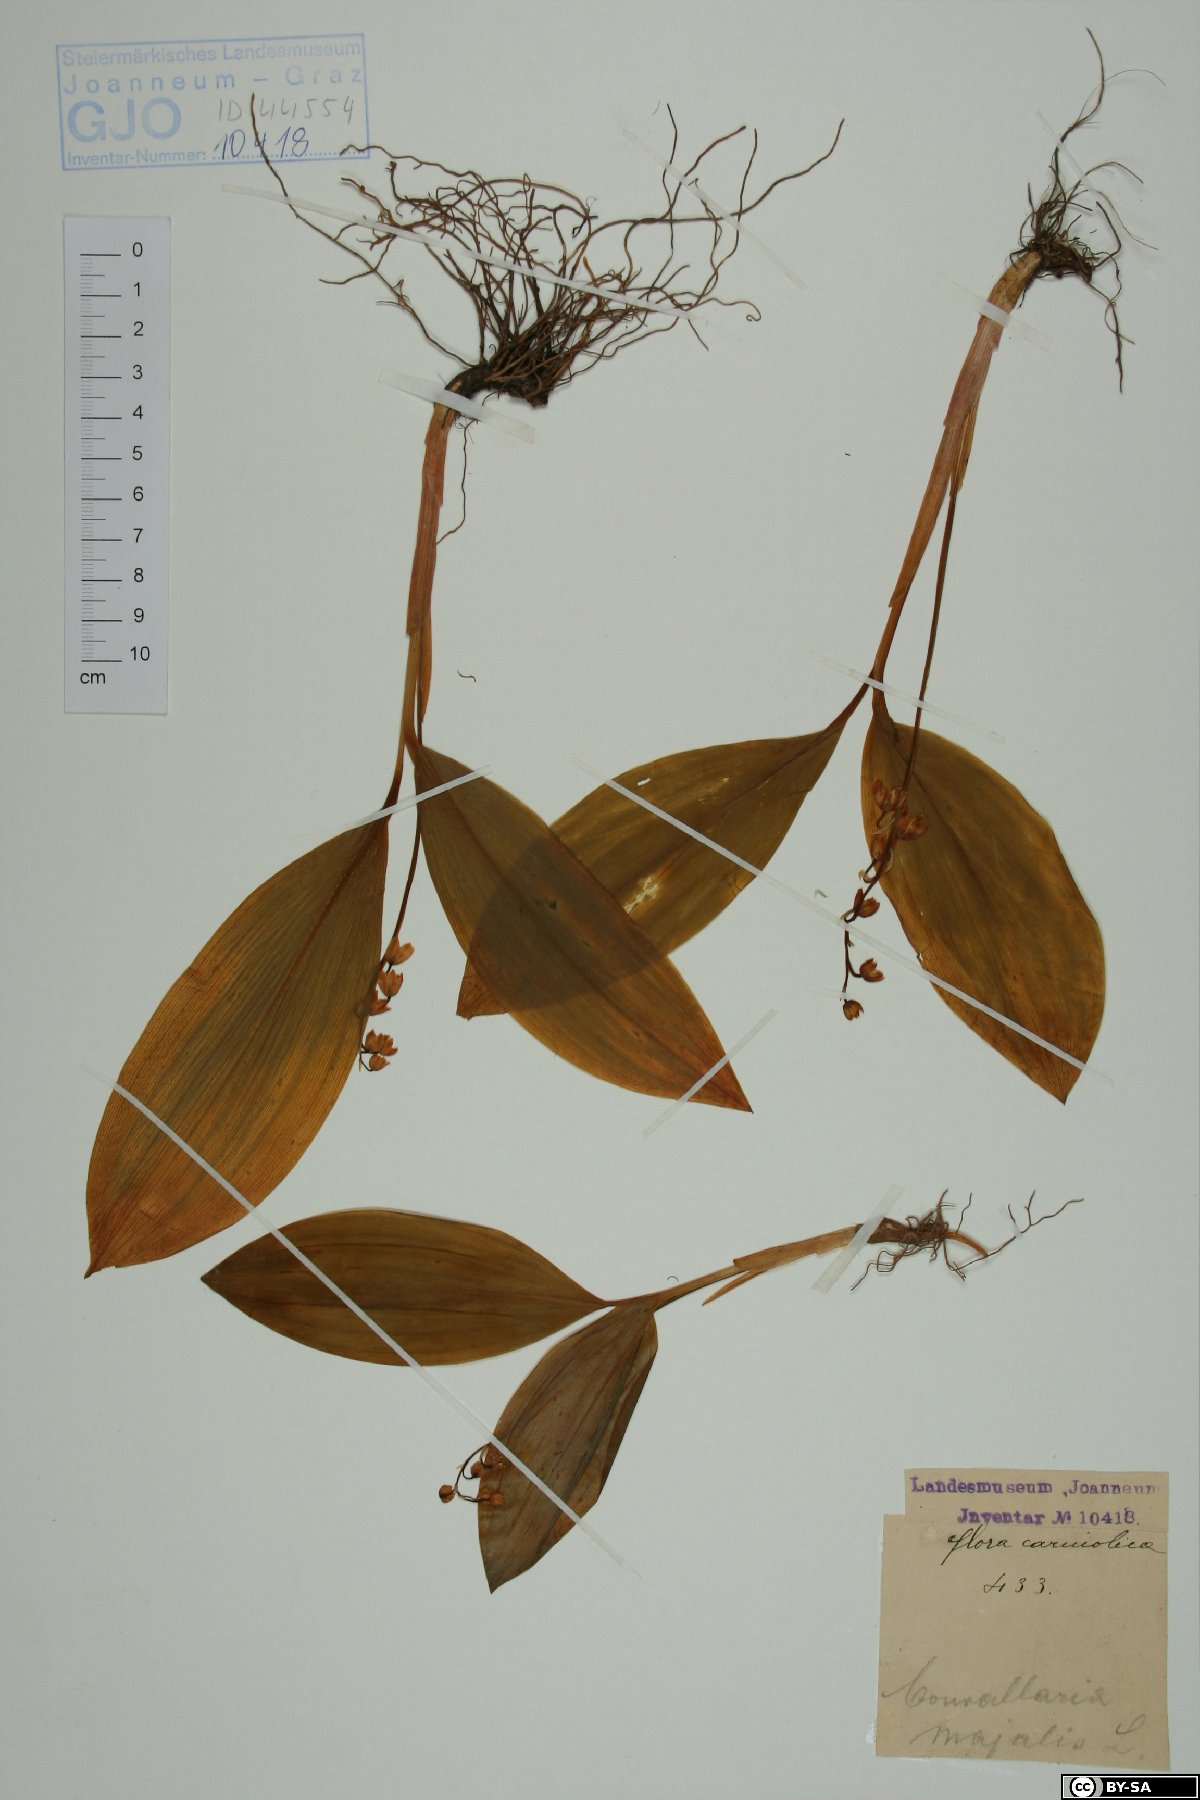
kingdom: Plantae
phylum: Tracheophyta
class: Liliopsida
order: Asparagales
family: Asparagaceae
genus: Convallaria
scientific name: Convallaria majalis
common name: Lily-of-the-valley
